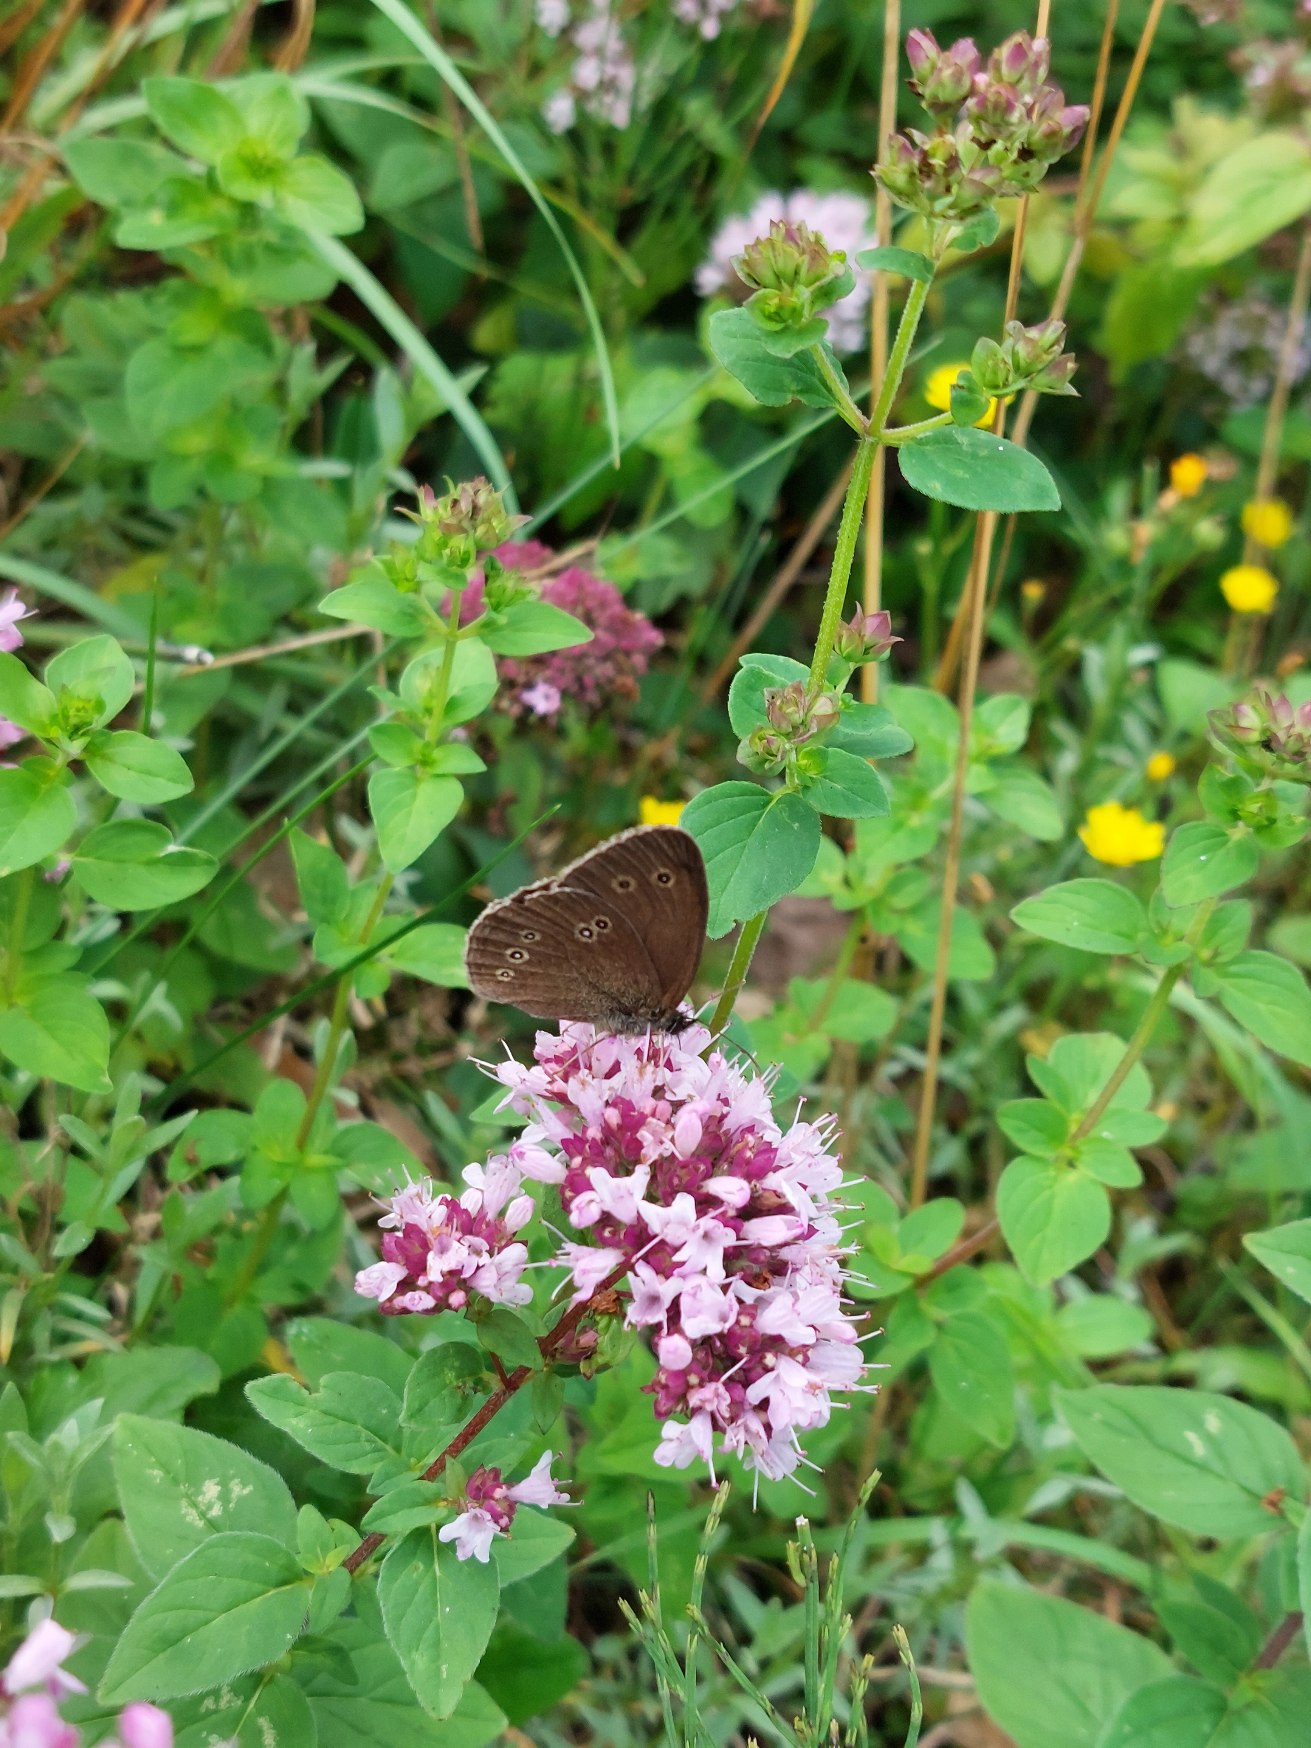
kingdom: Animalia
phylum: Arthropoda
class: Insecta
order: Lepidoptera
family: Nymphalidae
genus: Aphantopus
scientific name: Aphantopus hyperantus
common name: Engrandøje
